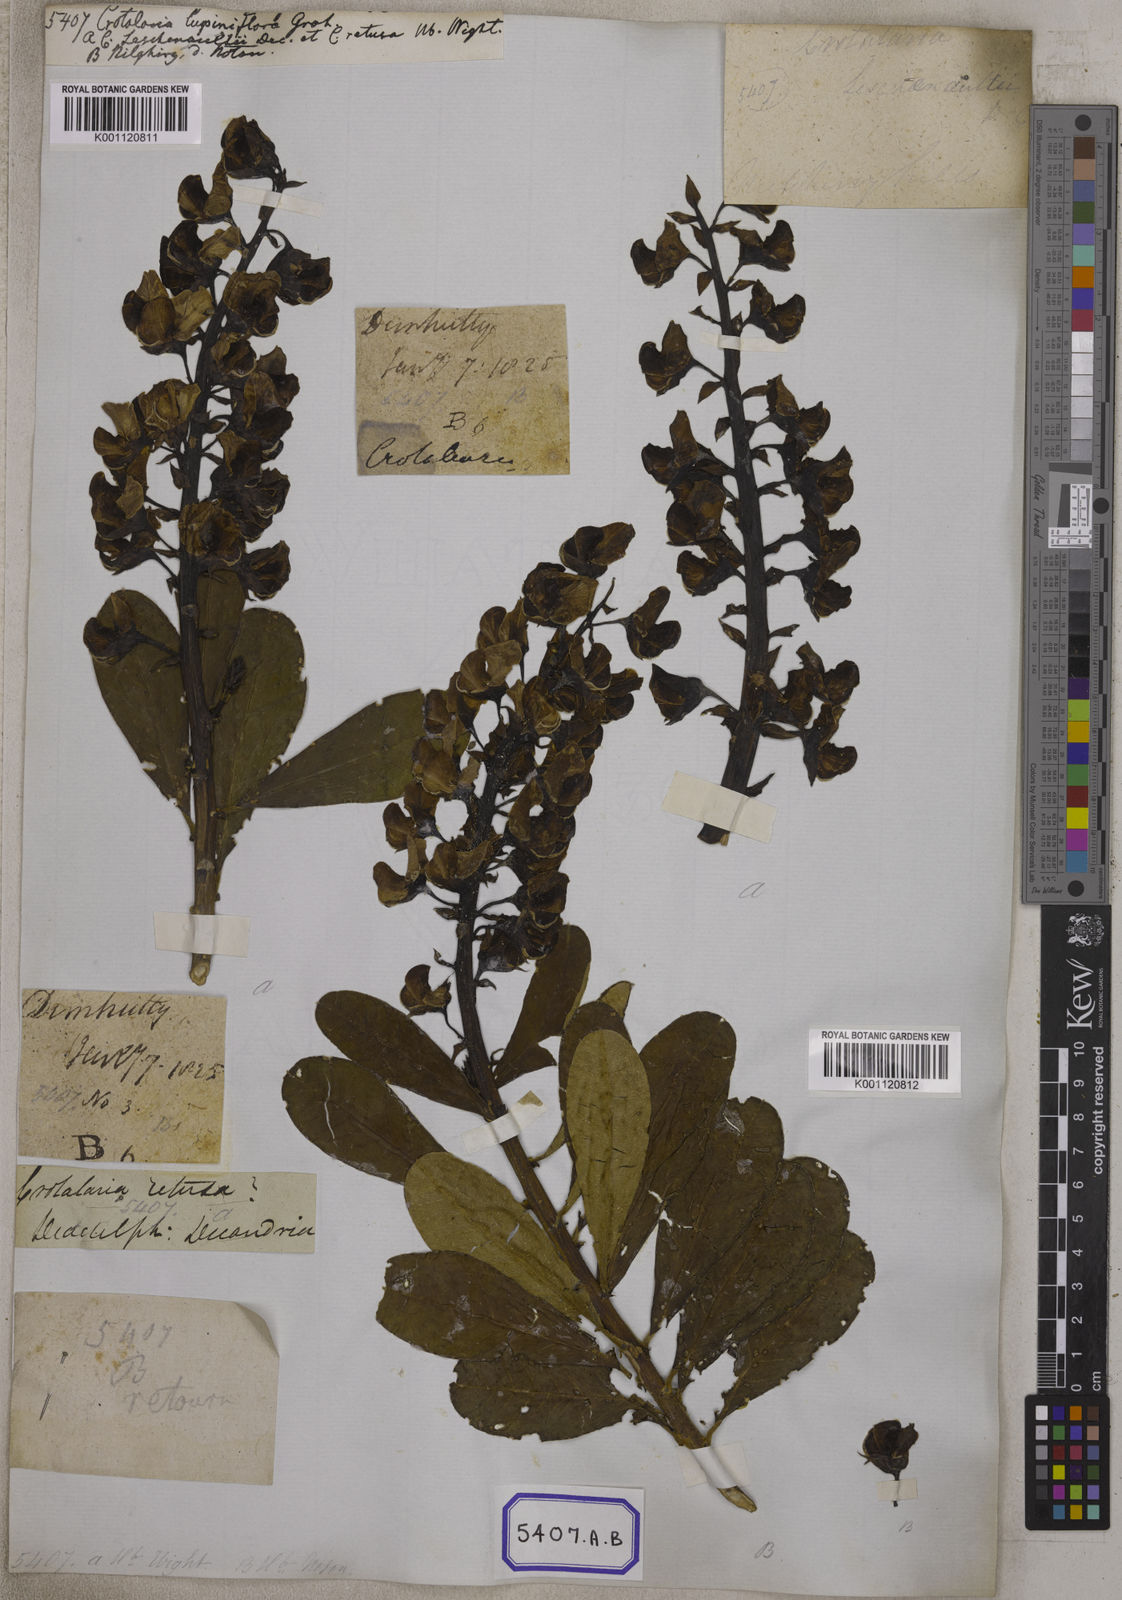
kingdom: Plantae
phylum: Tracheophyta
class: Magnoliopsida
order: Fabales
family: Fabaceae
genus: Crotalaria
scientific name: Crotalaria spectabilis
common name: Showy rattlebox
